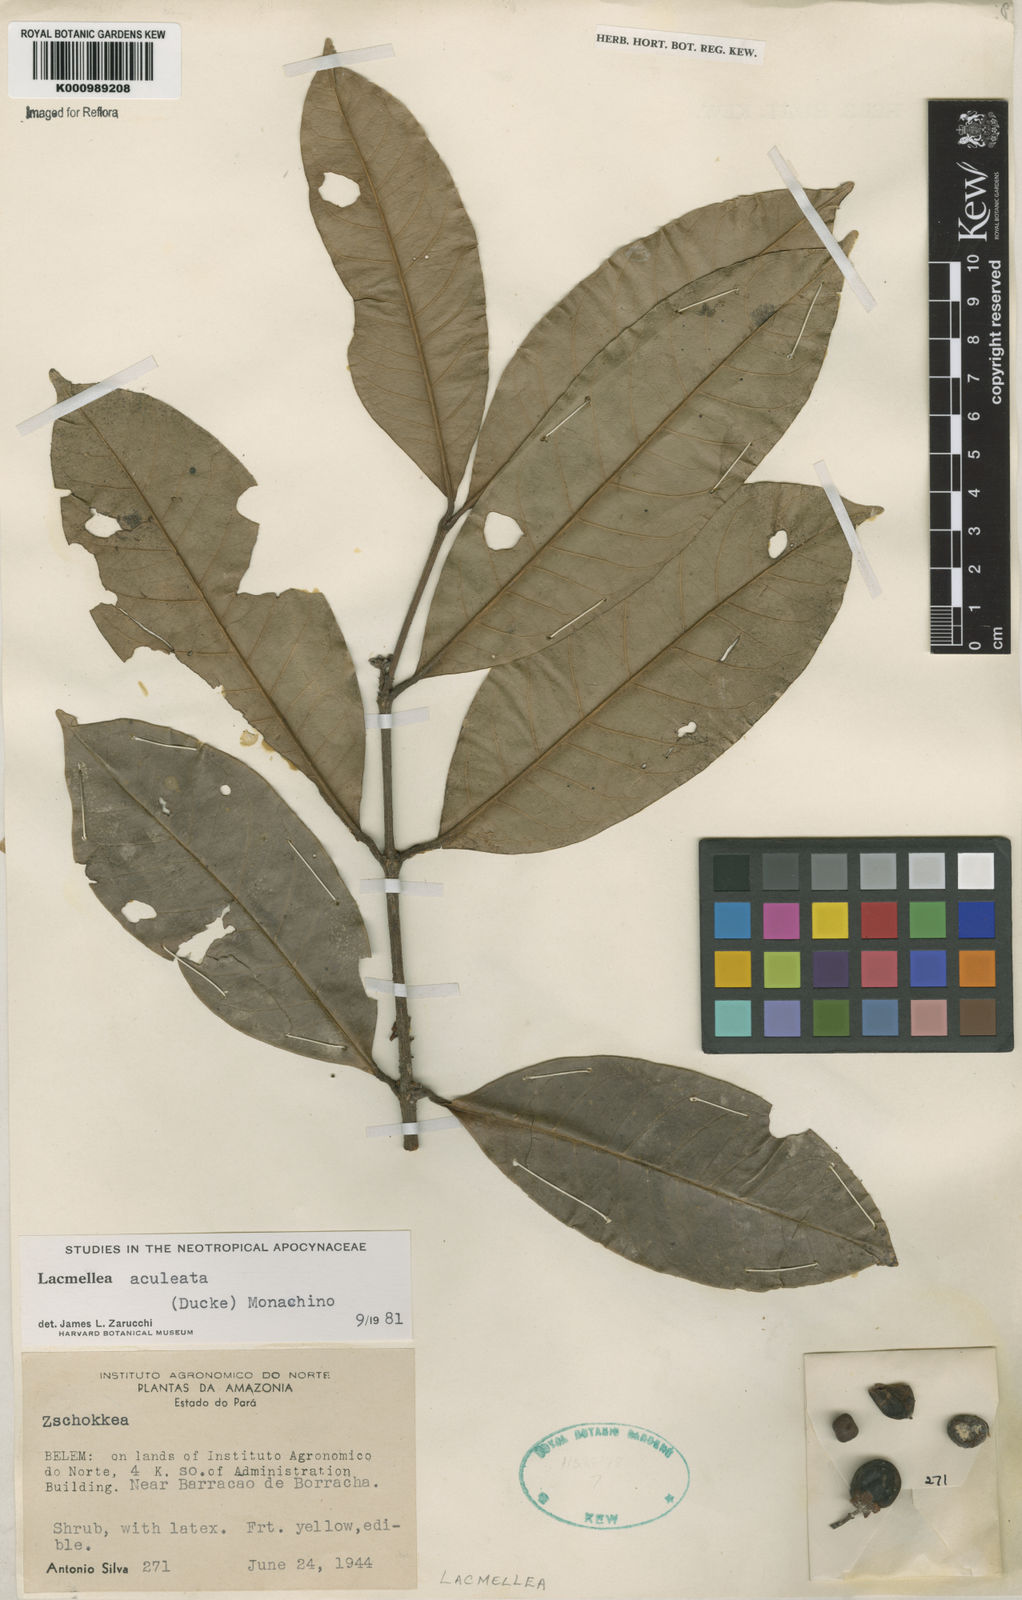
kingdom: Plantae
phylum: Tracheophyta
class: Magnoliopsida
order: Gentianales
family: Apocynaceae
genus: Lacmellea
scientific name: Lacmellea aculeata
